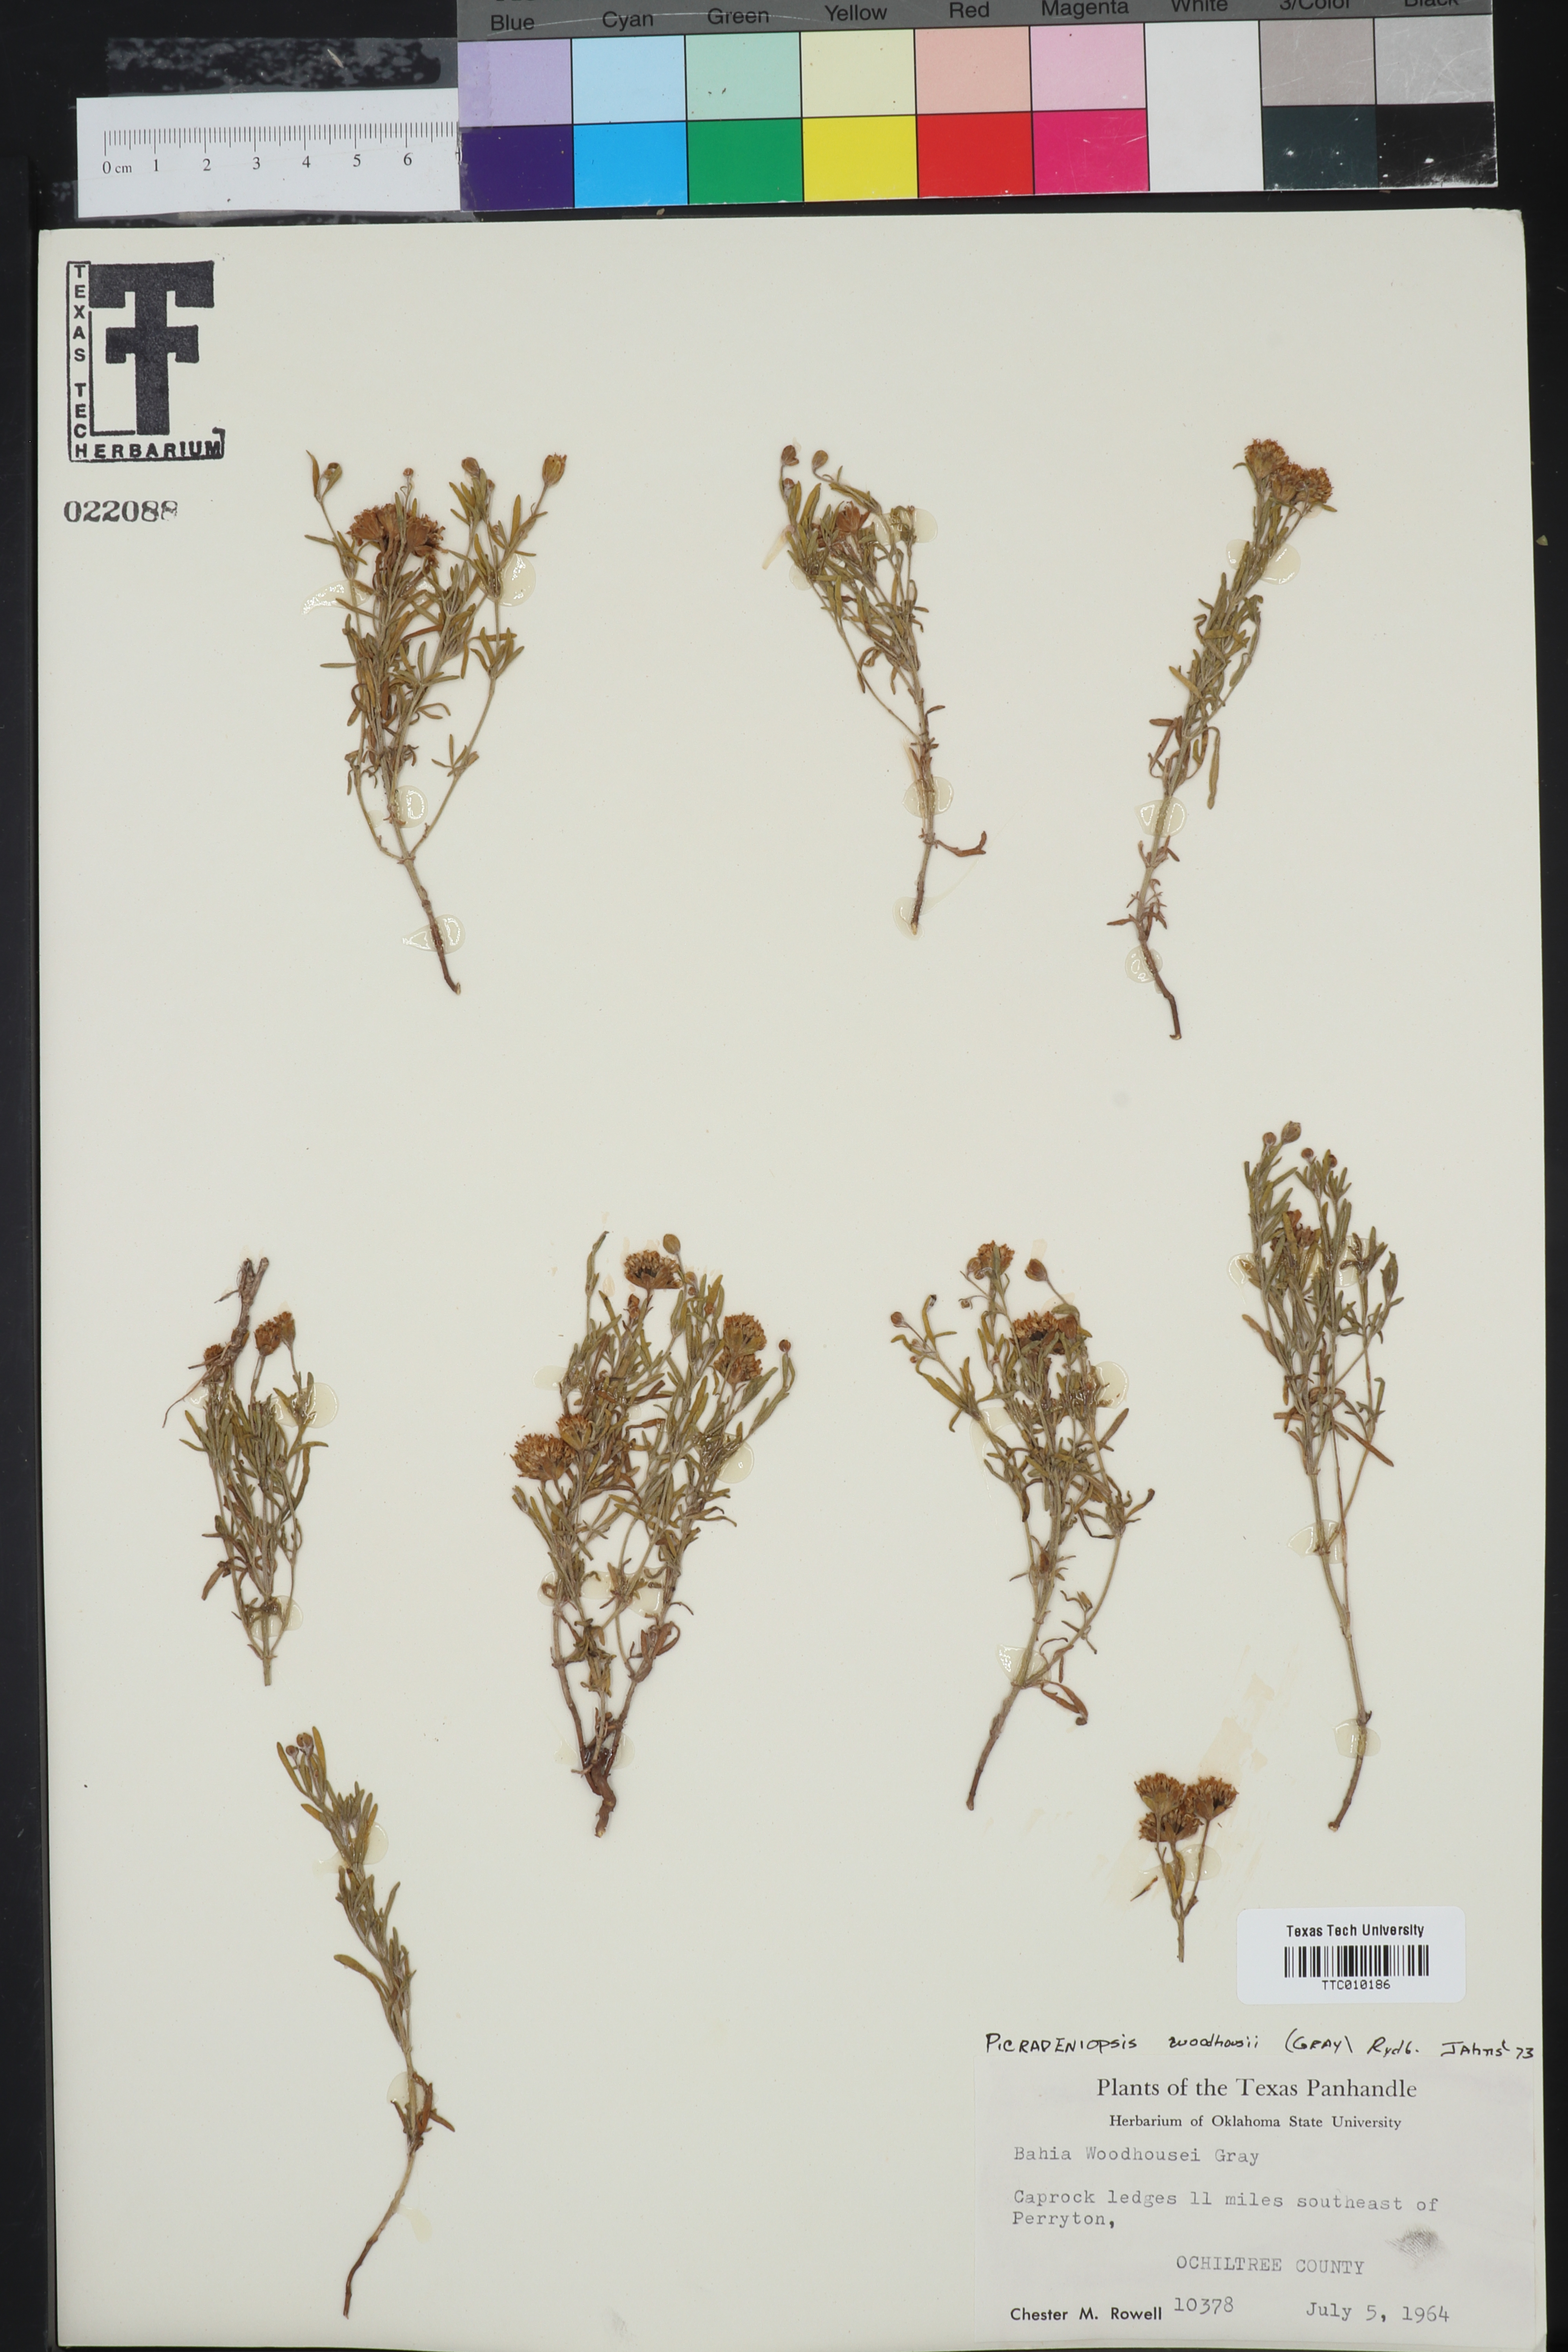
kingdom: Plantae
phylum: Tracheophyta
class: Magnoliopsida
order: Asterales
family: Asteraceae
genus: Picradeniopsis
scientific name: Picradeniopsis woodhousei
